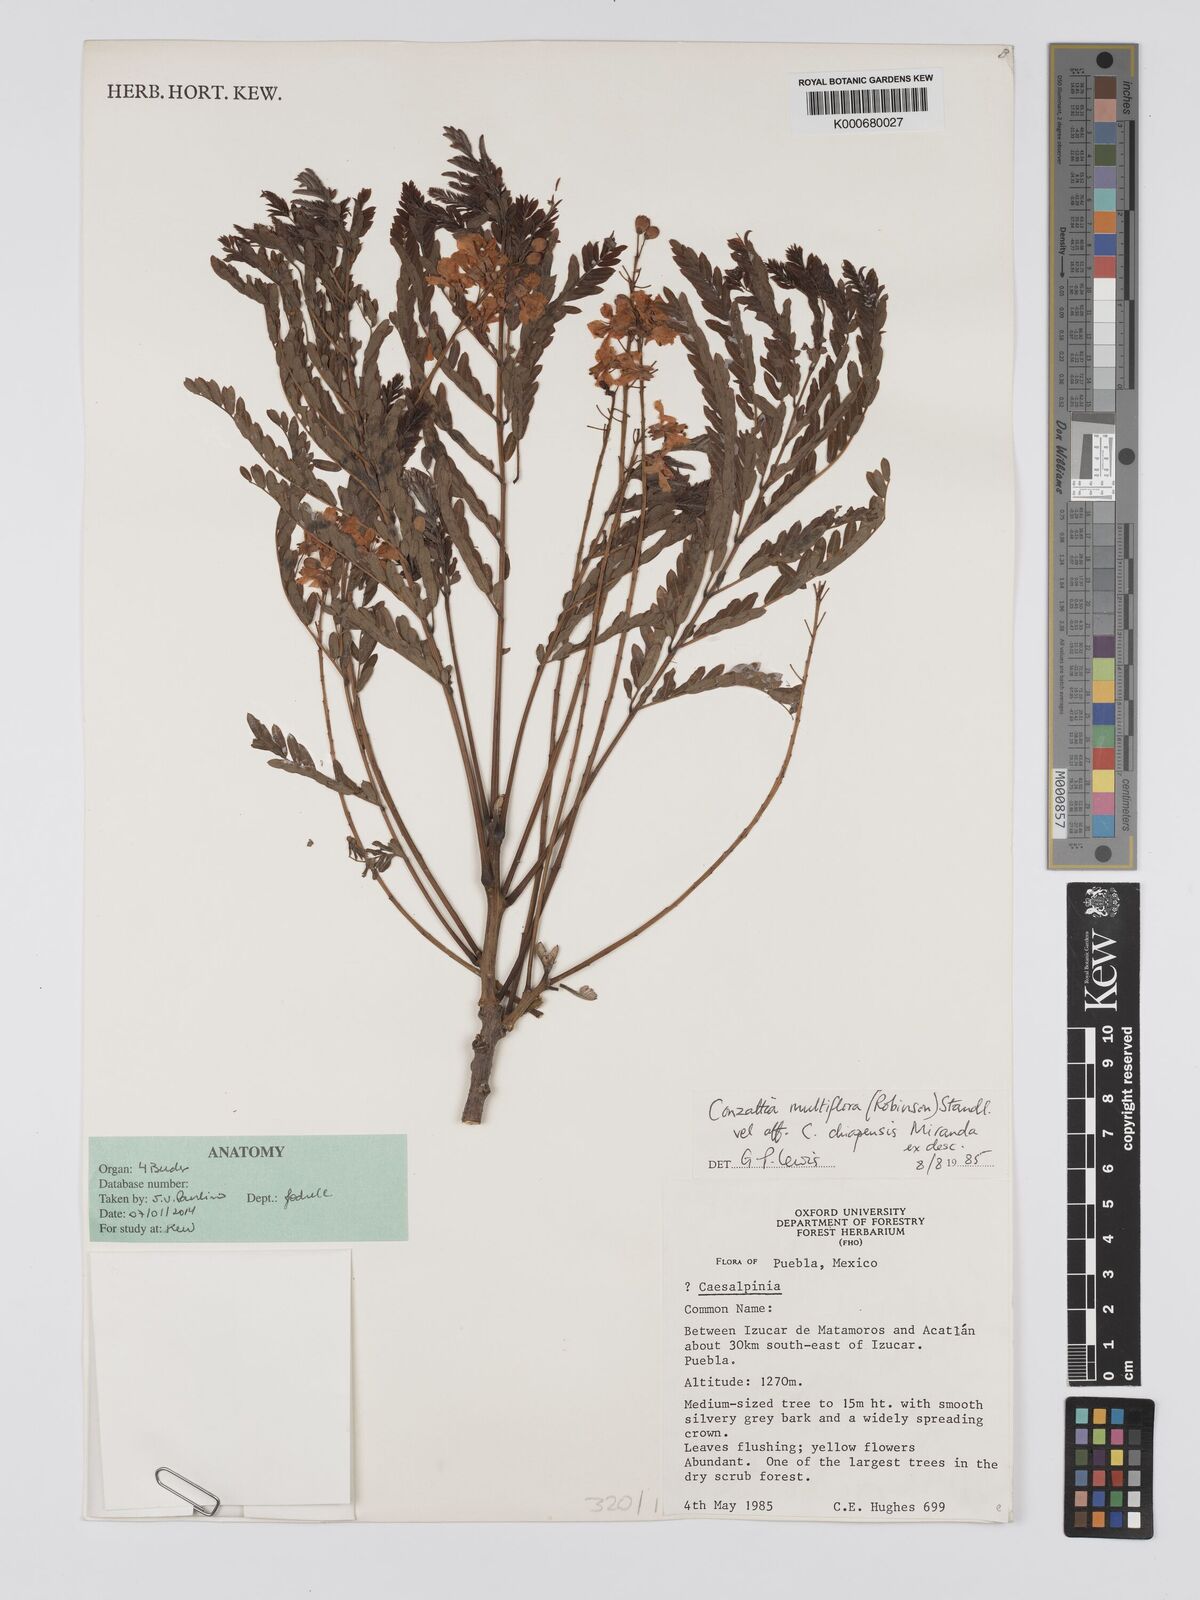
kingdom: Plantae
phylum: Tracheophyta
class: Magnoliopsida
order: Fabales
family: Fabaceae
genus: Conzattia
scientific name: Conzattia multiflora
